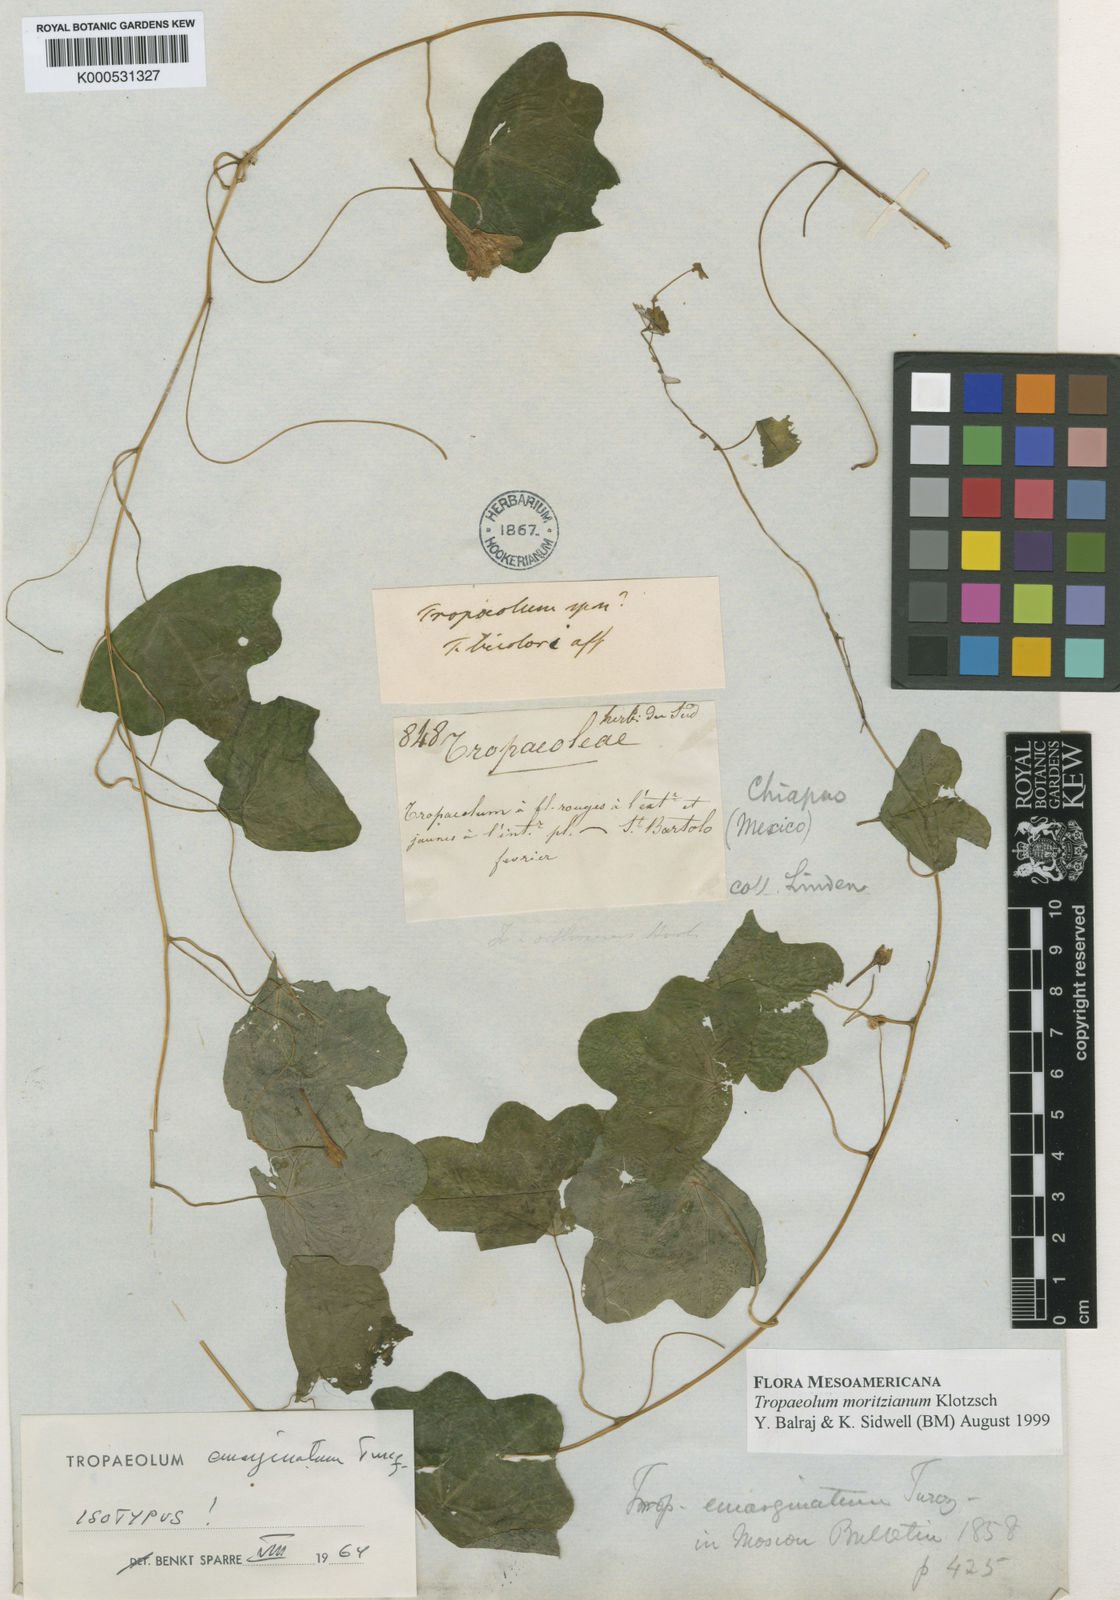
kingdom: Plantae
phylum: Tracheophyta
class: Magnoliopsida
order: Brassicales
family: Tropaeolaceae
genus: Tropaeolum
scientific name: Tropaeolum moritzianum
